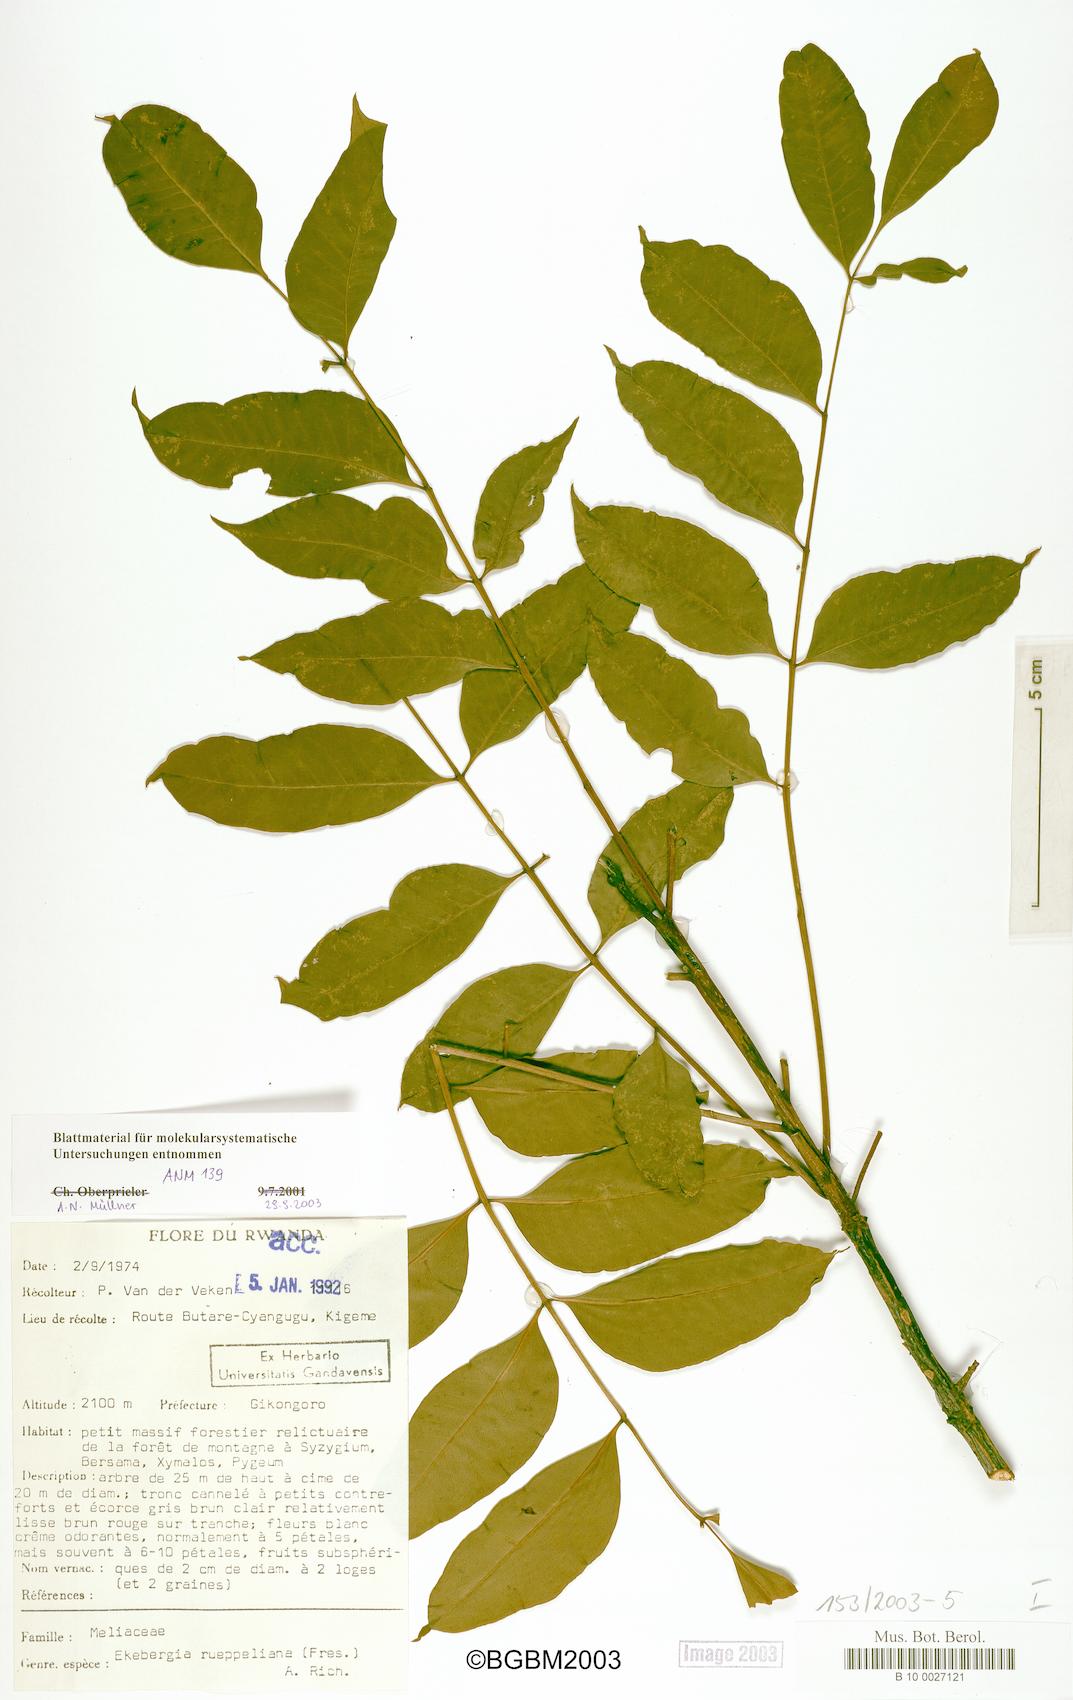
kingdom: Plantae
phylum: Tracheophyta
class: Magnoliopsida
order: Sapindales
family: Meliaceae
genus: Ekebergia
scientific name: Ekebergia capensis
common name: Cape-ash
